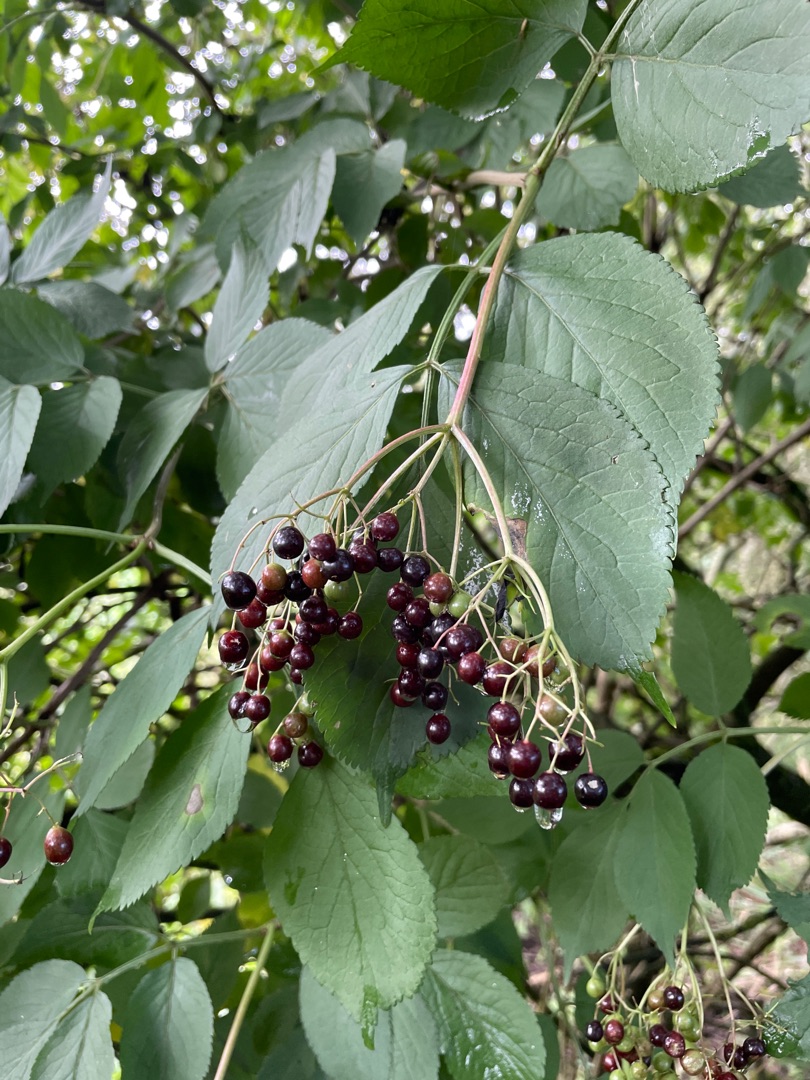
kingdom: Plantae
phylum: Tracheophyta
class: Magnoliopsida
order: Dipsacales
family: Viburnaceae
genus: Sambucus
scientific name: Sambucus nigra
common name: Almindelig hyld
